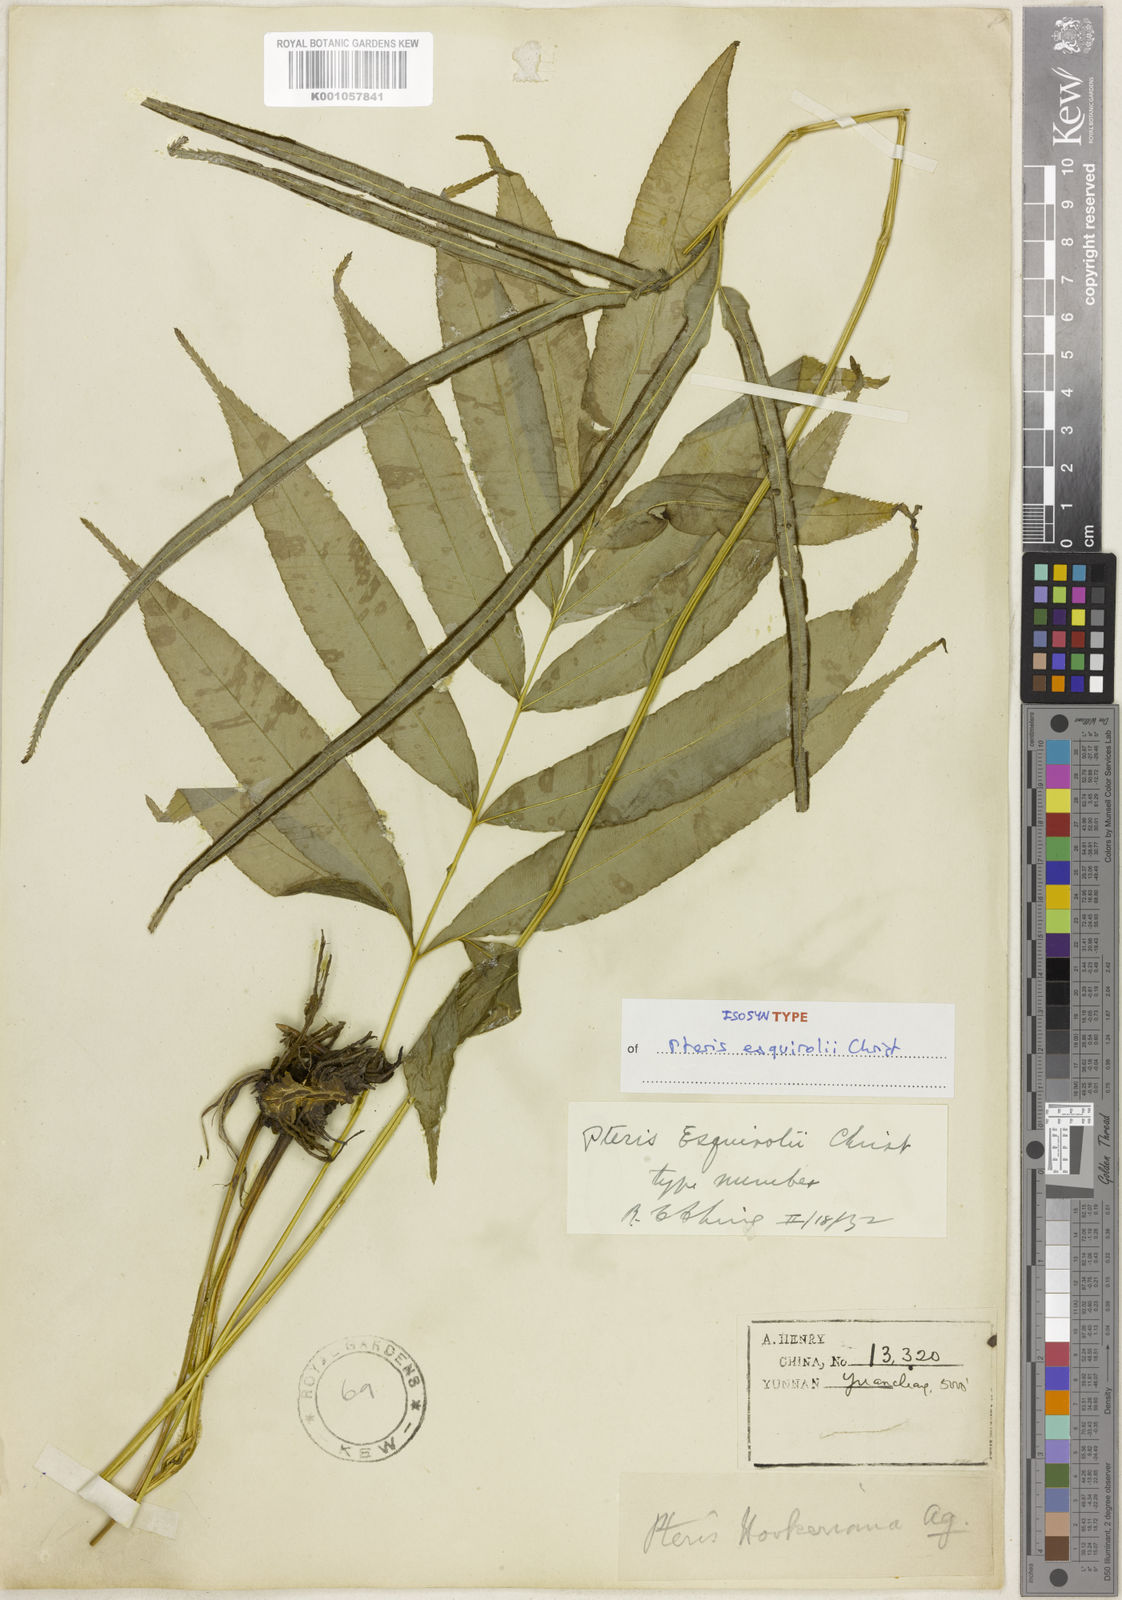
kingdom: Plantae
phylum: Tracheophyta
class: Polypodiopsida
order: Polypodiales
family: Pteridaceae
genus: Pteris
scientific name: Pteris esquirolii
